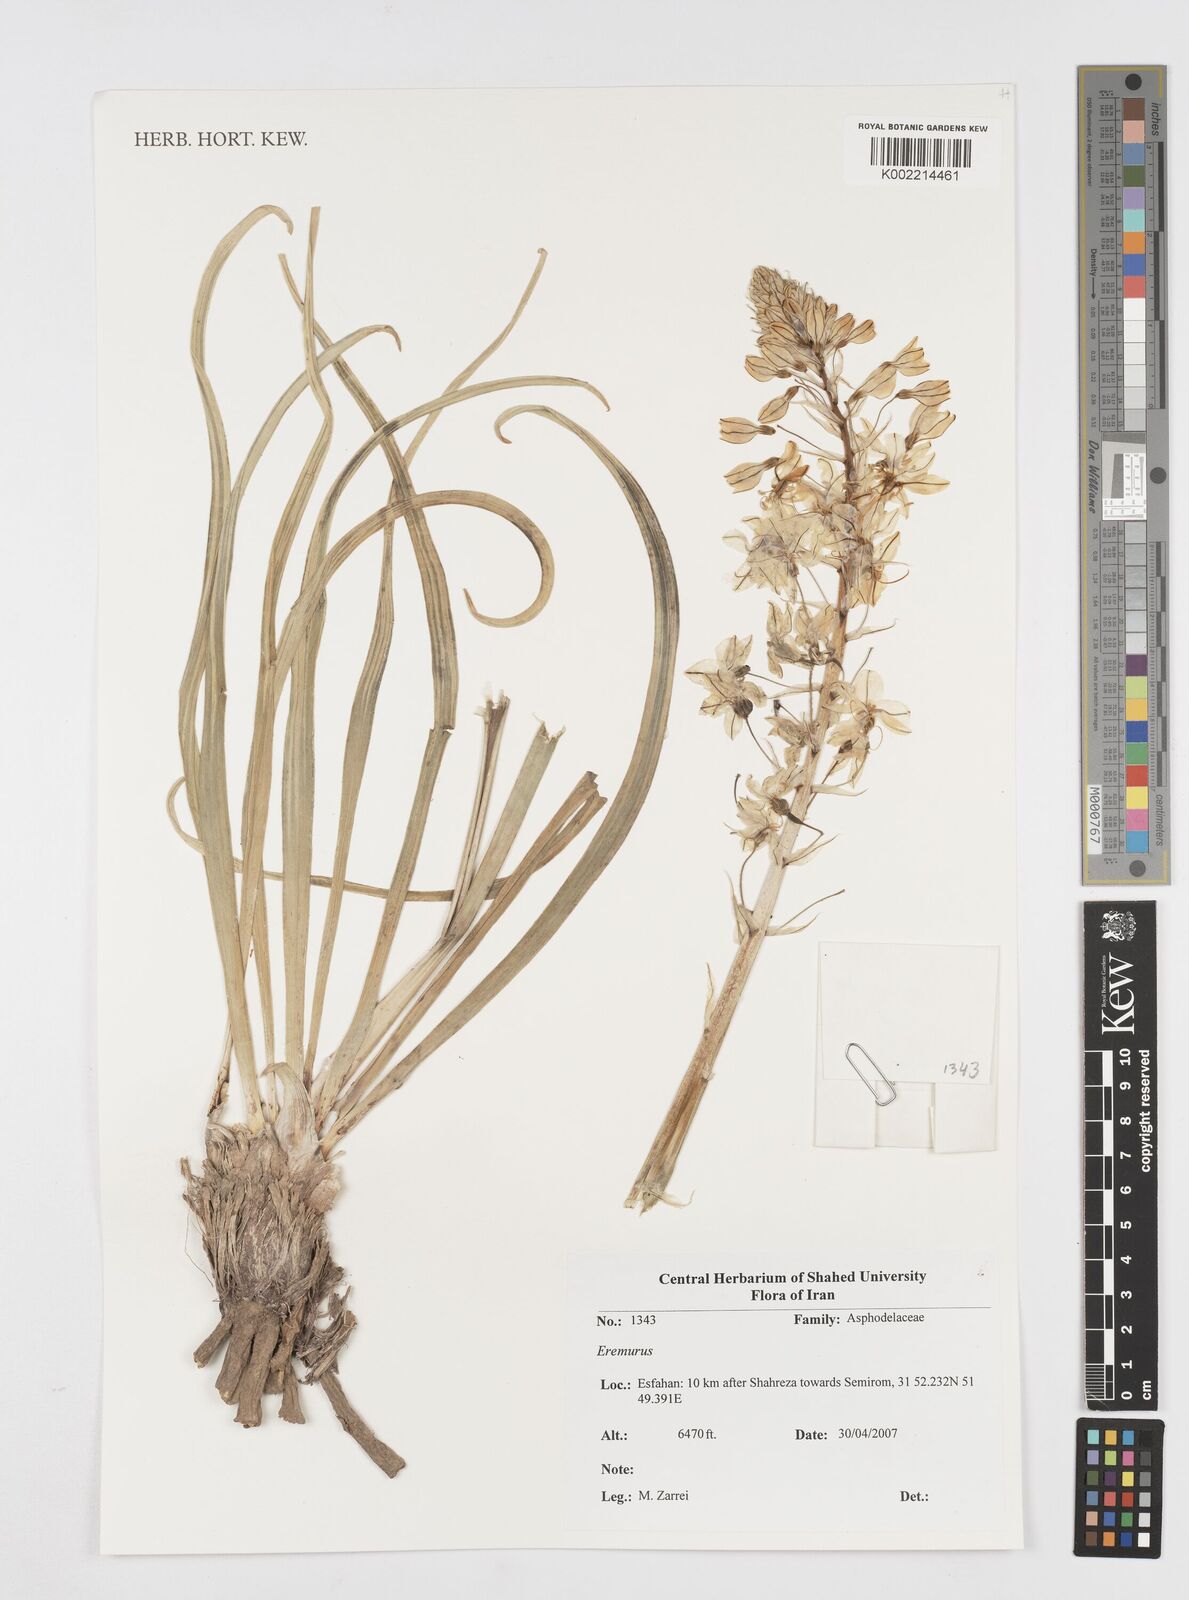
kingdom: Plantae
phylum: Tracheophyta
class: Liliopsida
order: Asparagales
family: Asphodelaceae
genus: Eremurus
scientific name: Eremurus
